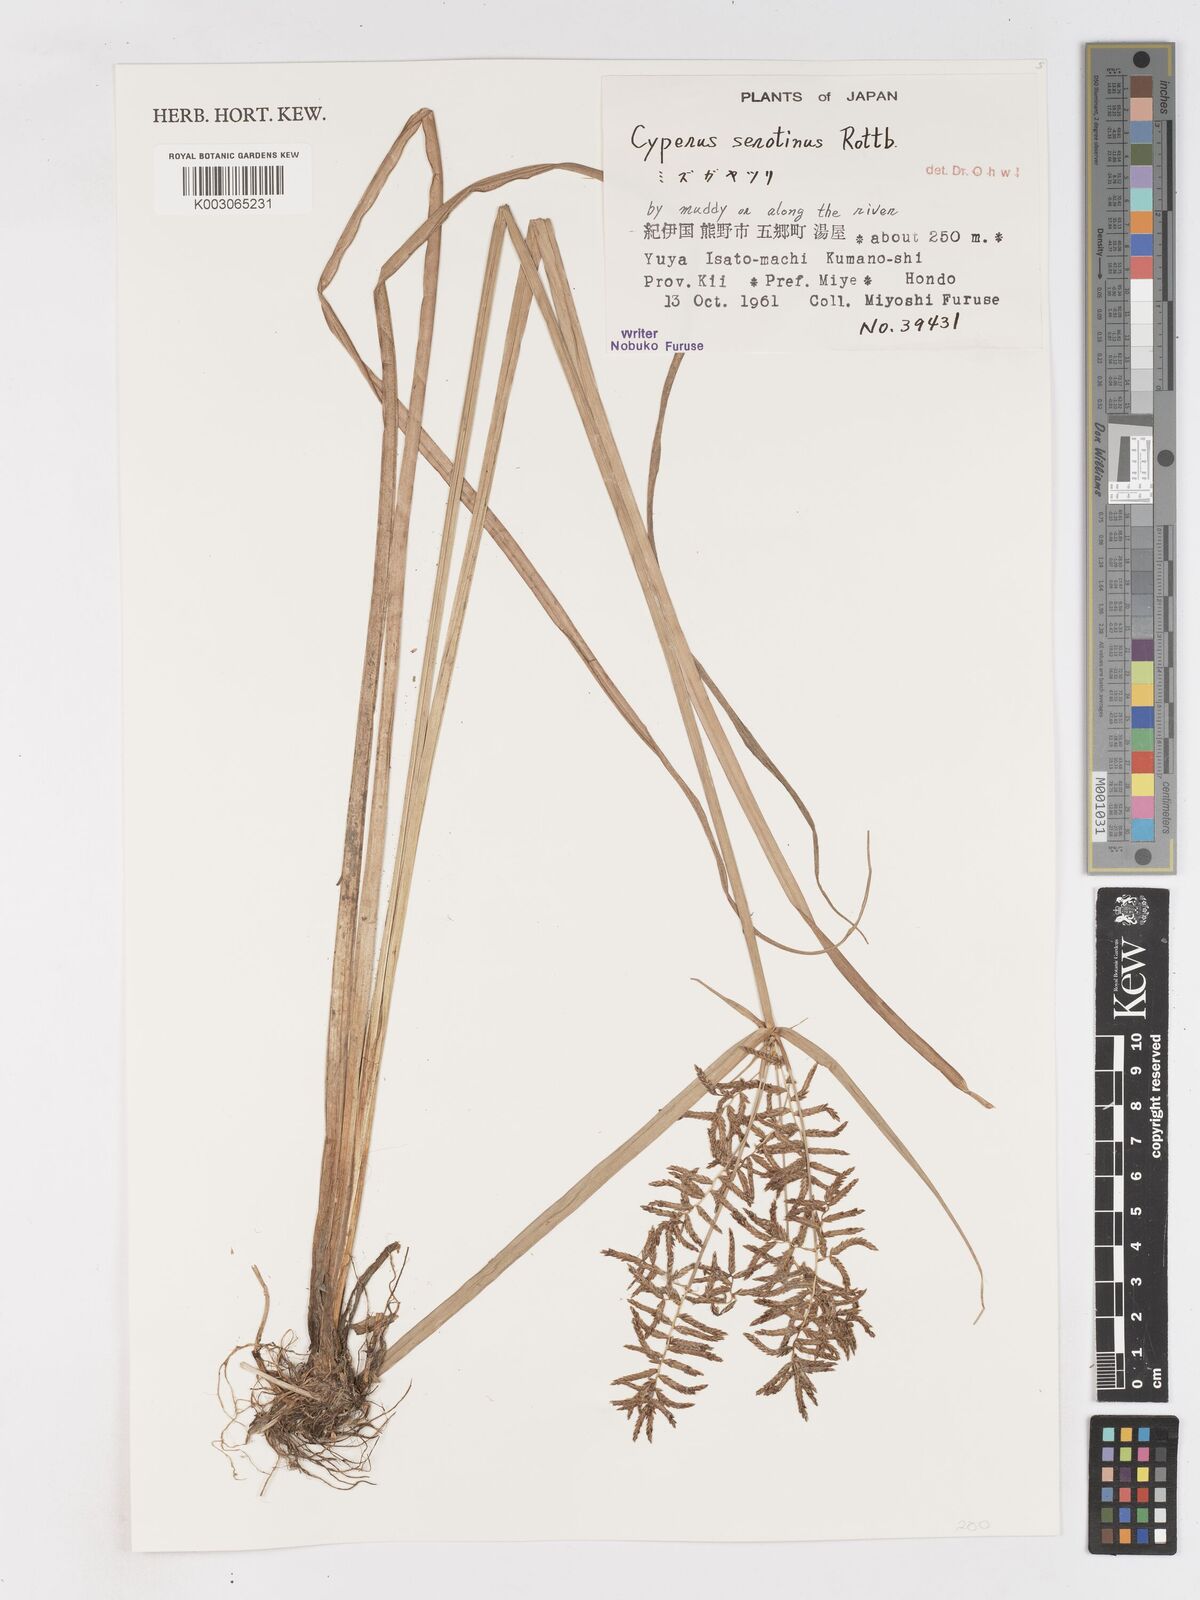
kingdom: Plantae
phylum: Tracheophyta
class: Liliopsida
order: Poales
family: Cyperaceae
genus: Cyperus
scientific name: Cyperus serotinus
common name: Tidalmarsh flatsedge
